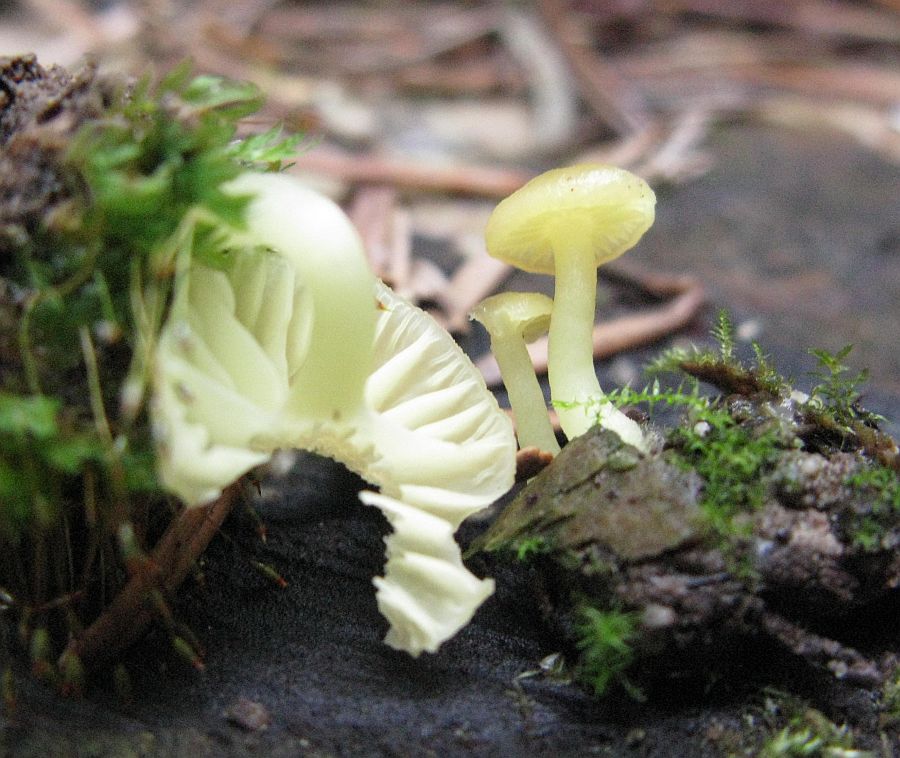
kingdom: Fungi
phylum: Basidiomycota
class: Agaricomycetes
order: Agaricales
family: Hygrophoraceae
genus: Chrysomphalina
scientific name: Chrysomphalina grossula
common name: stød-gyldenblad
